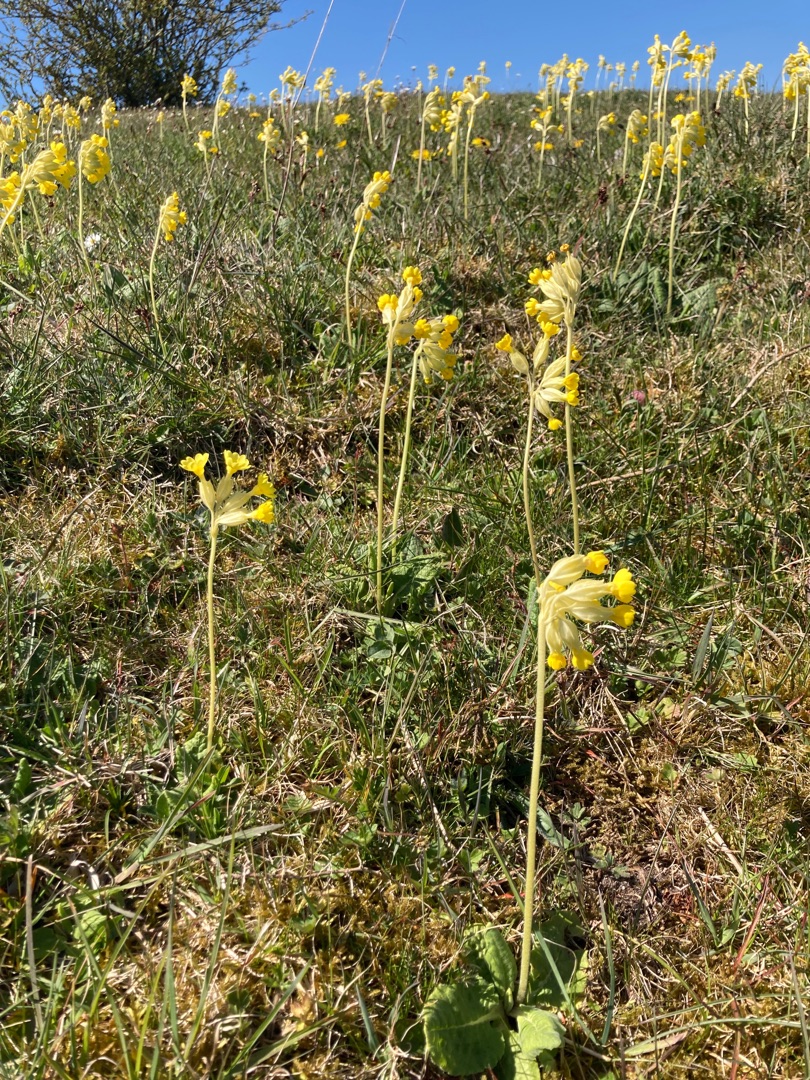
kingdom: Plantae
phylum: Tracheophyta
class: Magnoliopsida
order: Ericales
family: Primulaceae
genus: Primula
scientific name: Primula veris
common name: Hulkravet kodriver
